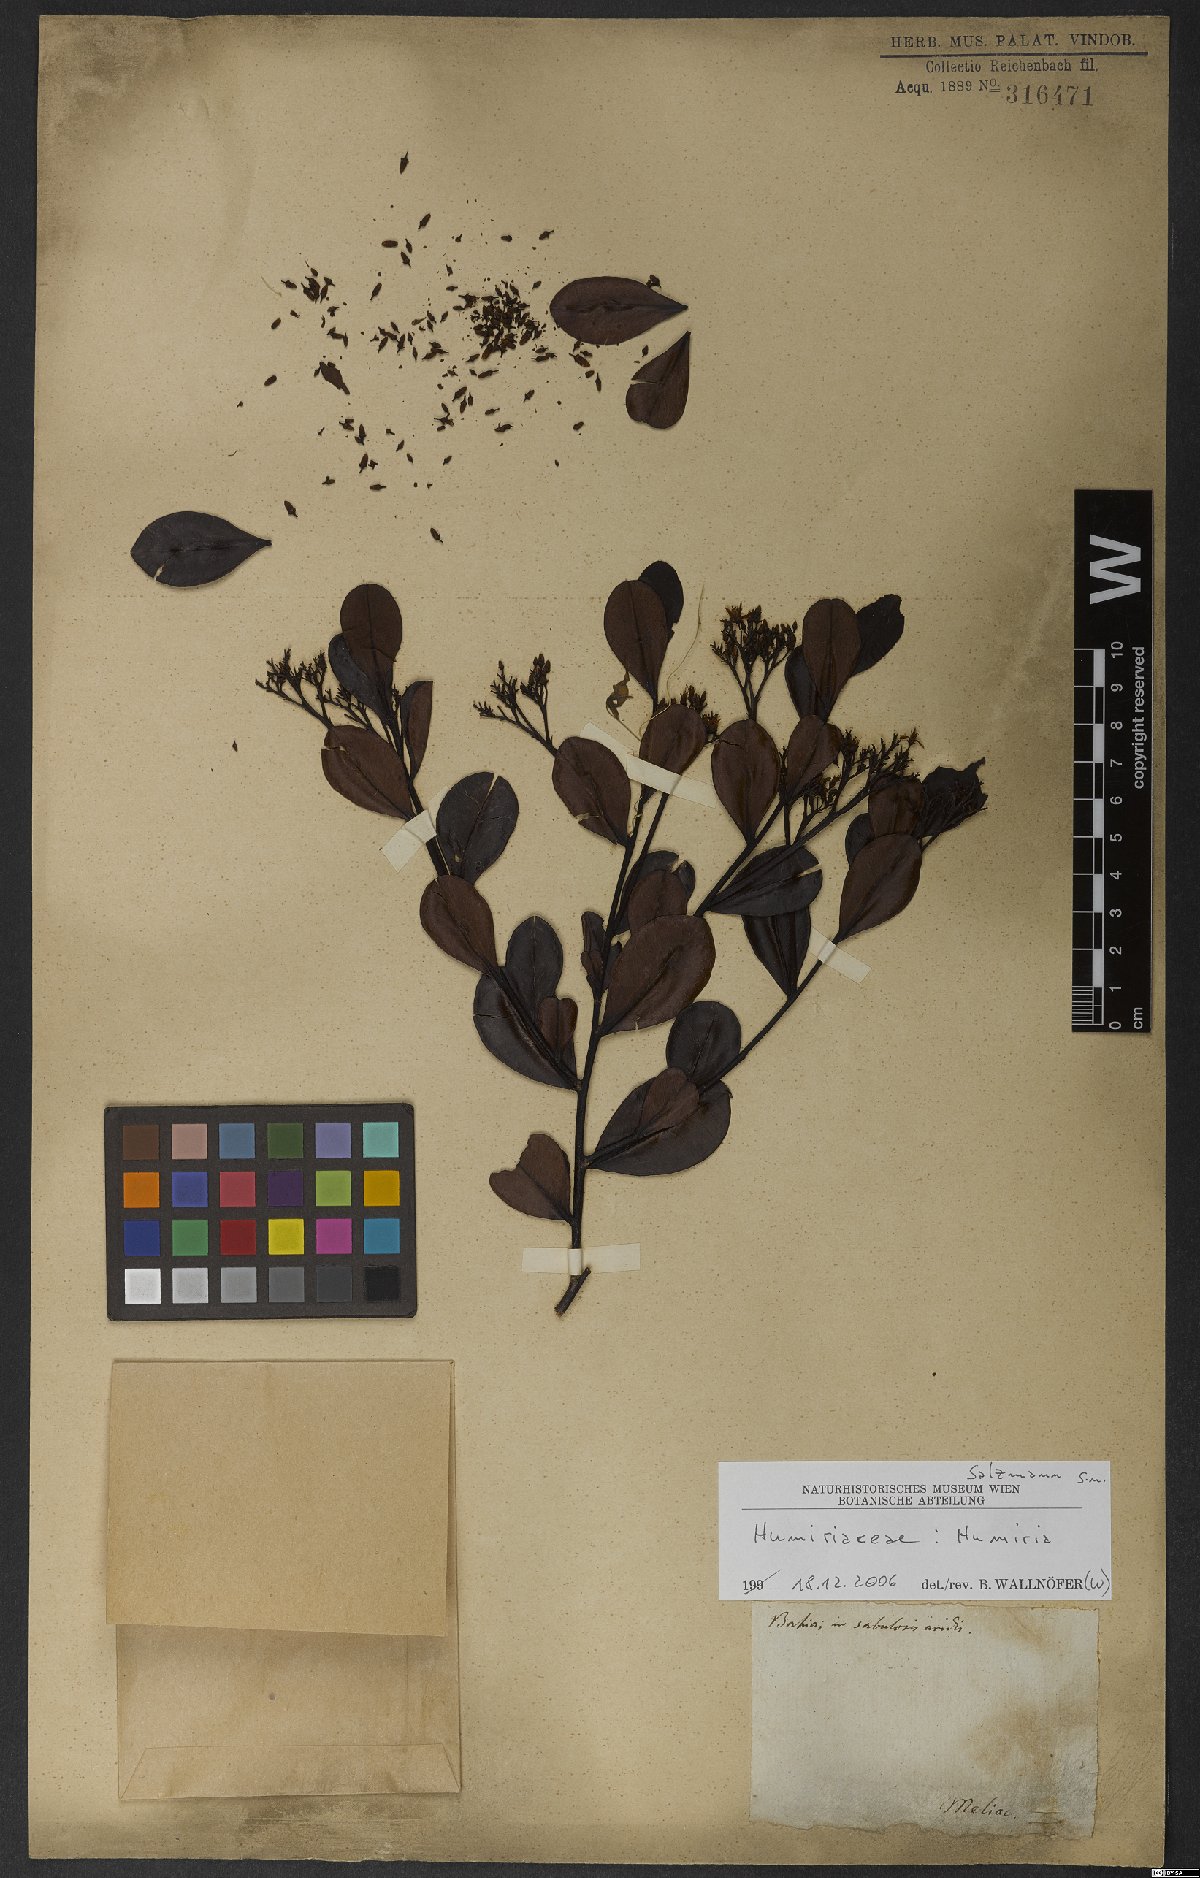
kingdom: Plantae
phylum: Tracheophyta
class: Magnoliopsida
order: Malpighiales
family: Humiriaceae
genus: Humiria
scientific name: Humiria
